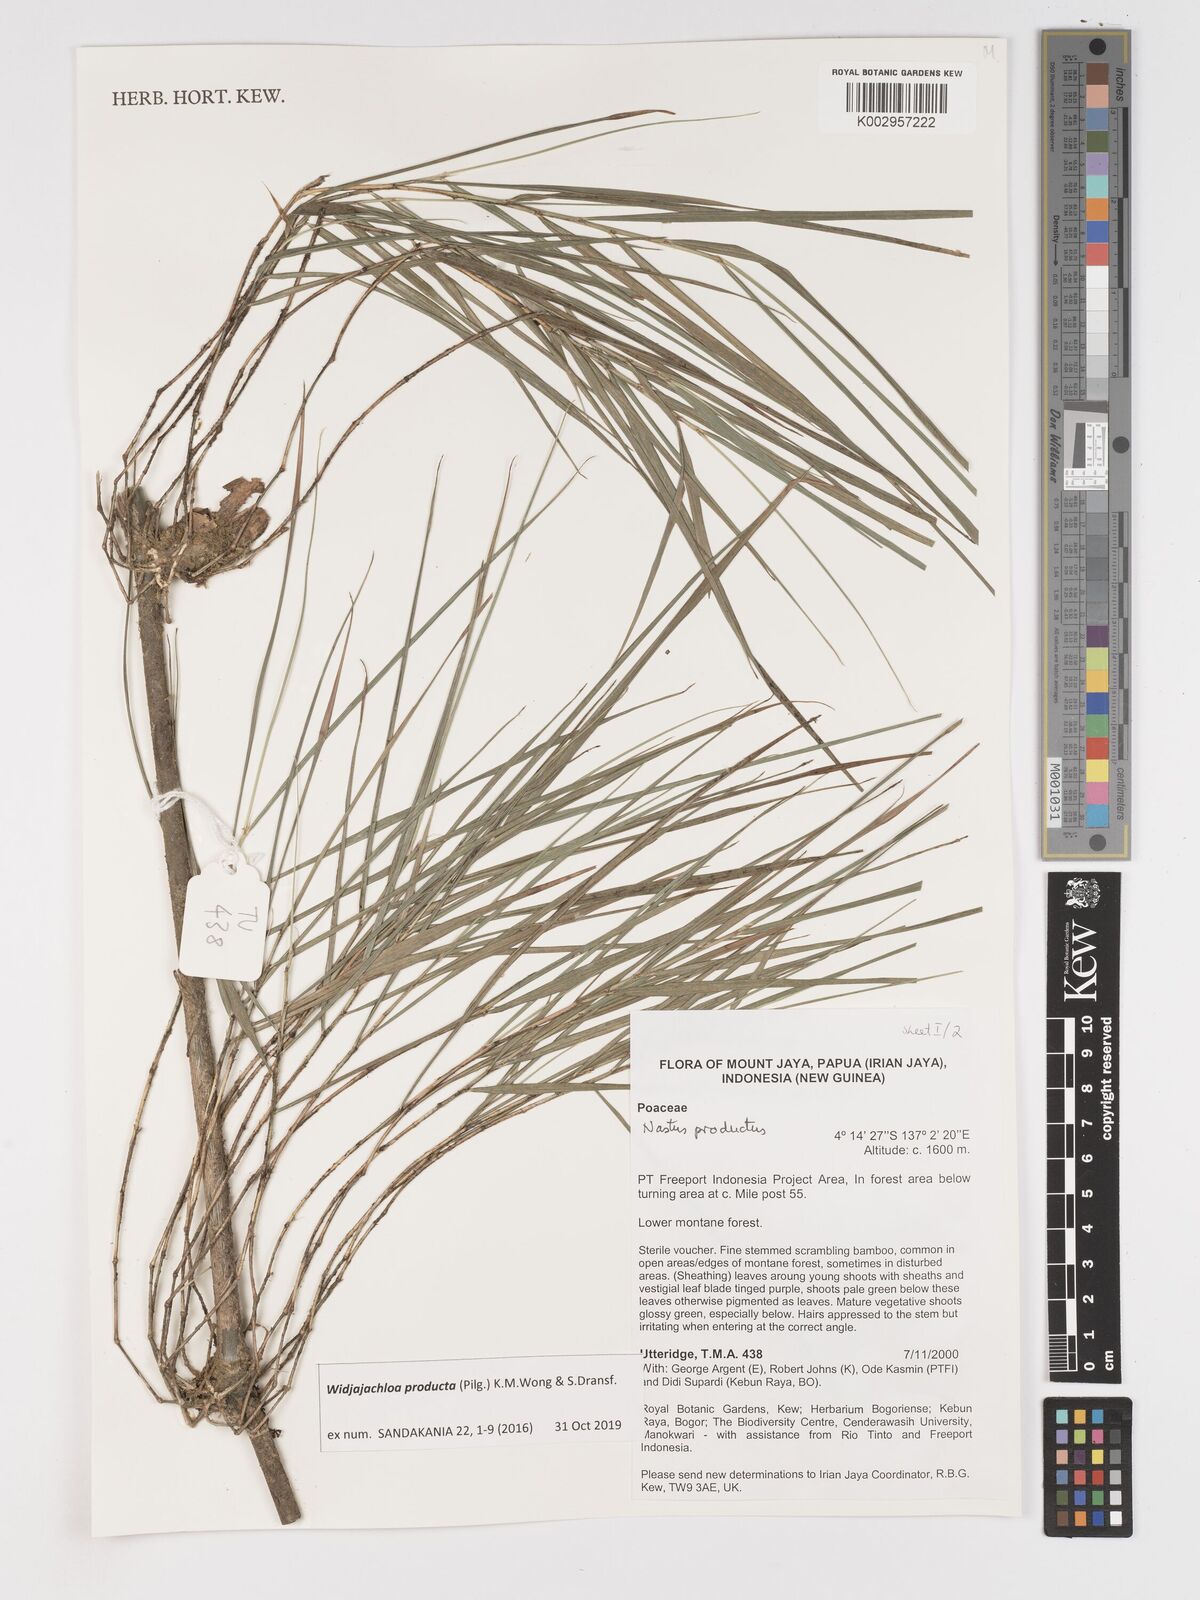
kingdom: Plantae
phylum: Tracheophyta
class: Liliopsida
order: Poales
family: Poaceae
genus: Widjajachloa
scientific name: Widjajachloa producta
